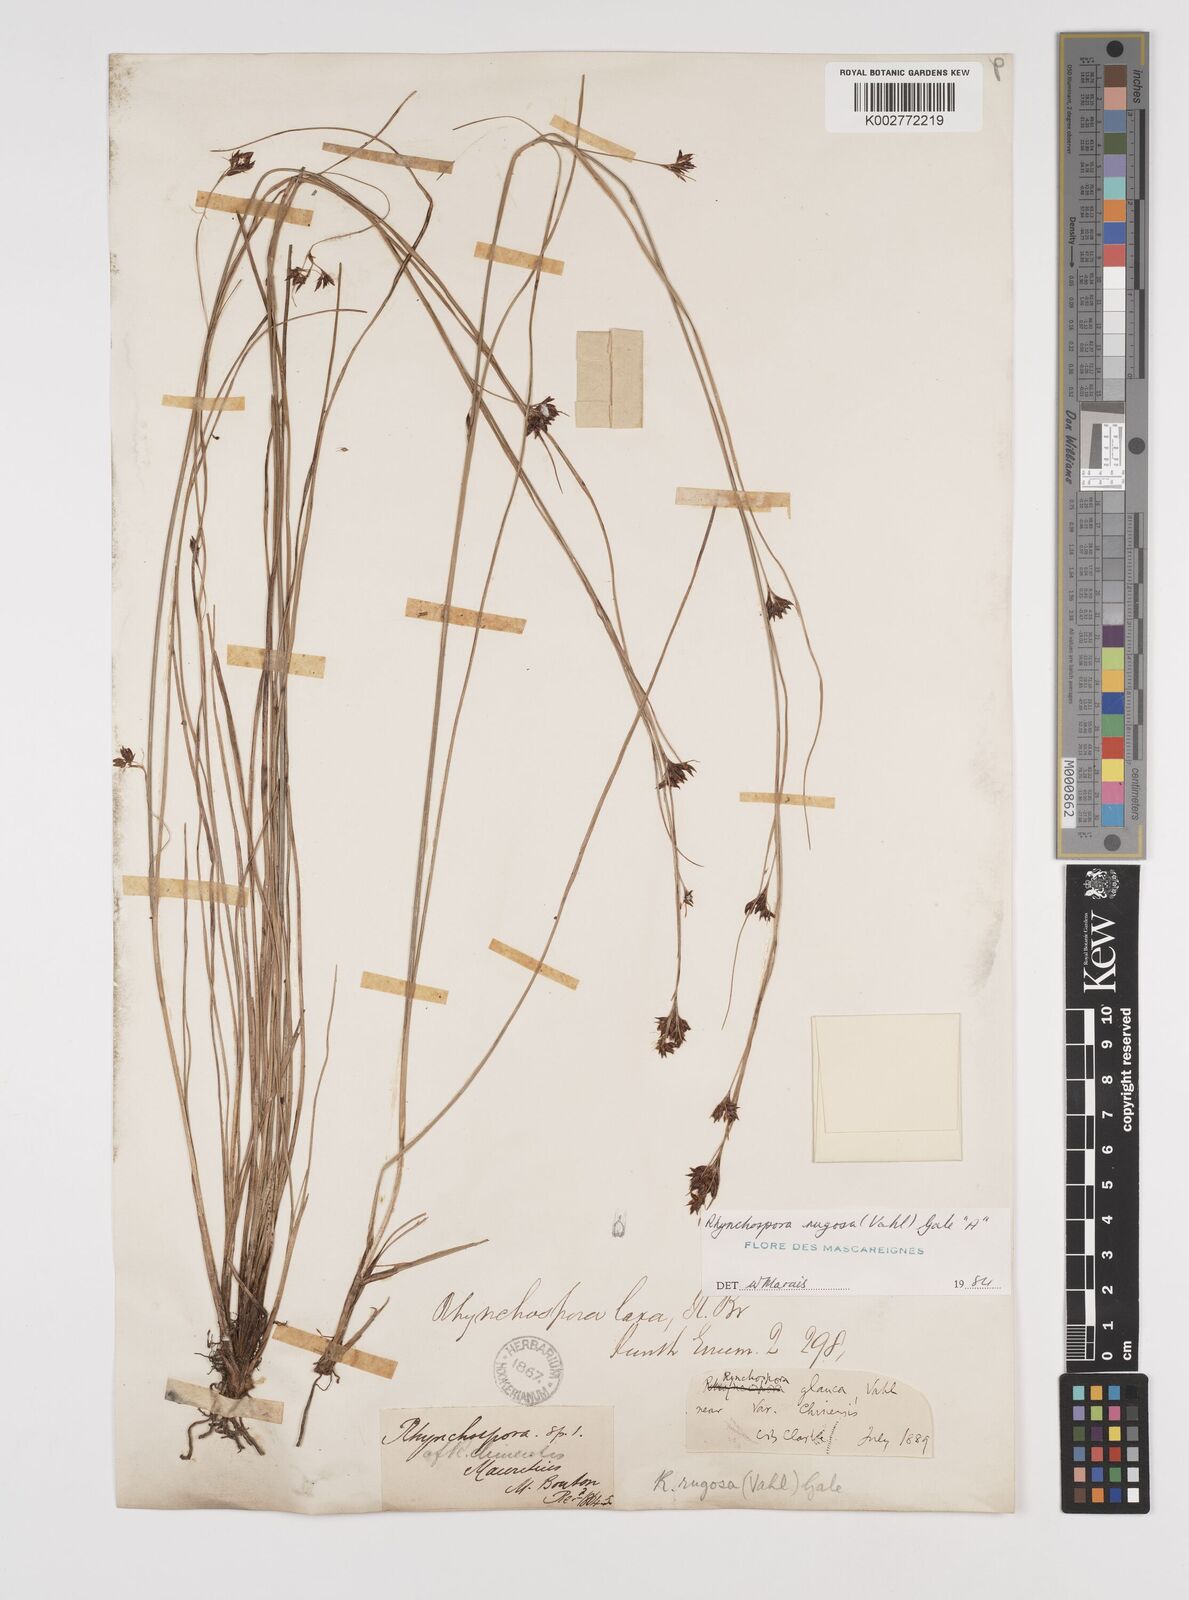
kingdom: Plantae
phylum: Tracheophyta
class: Liliopsida
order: Poales
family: Cyperaceae
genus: Rhynchospora
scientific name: Rhynchospora rugosa
